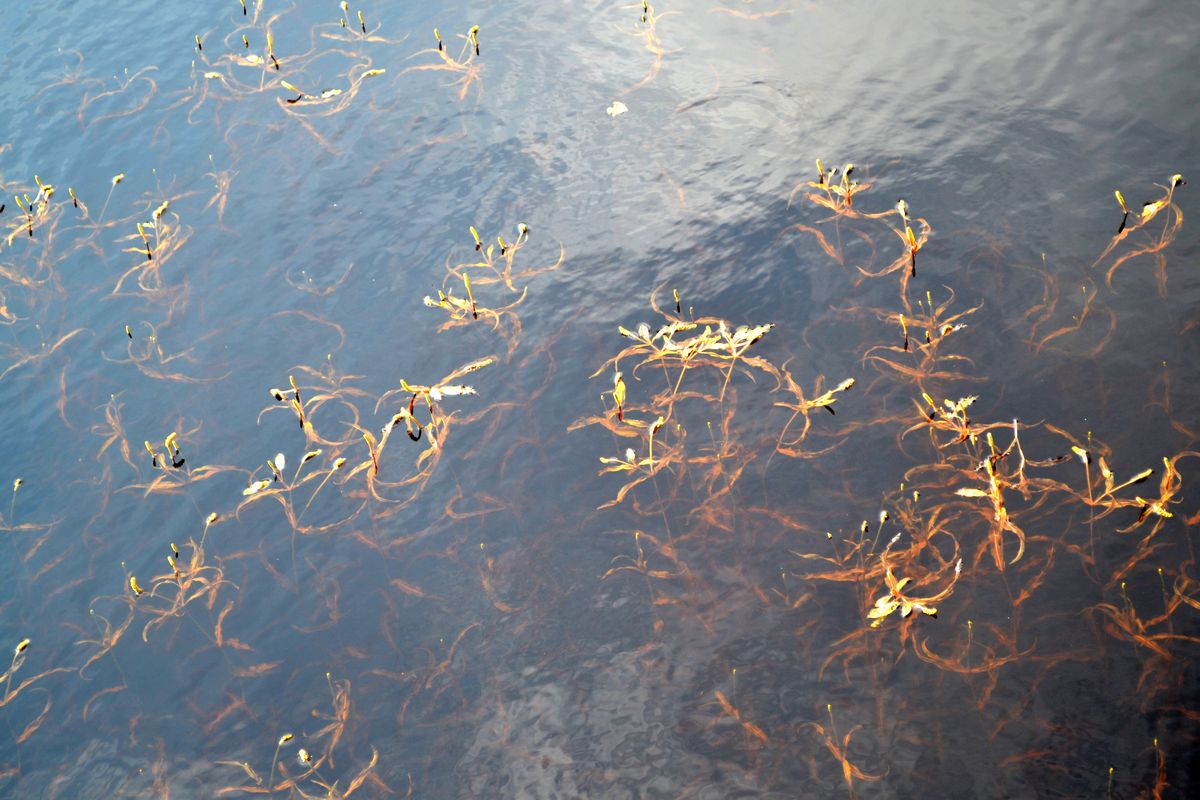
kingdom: Plantae
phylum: Tracheophyta
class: Liliopsida
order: Alismatales
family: Potamogetonaceae
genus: Potamogeton
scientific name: Potamogeton alpinus
